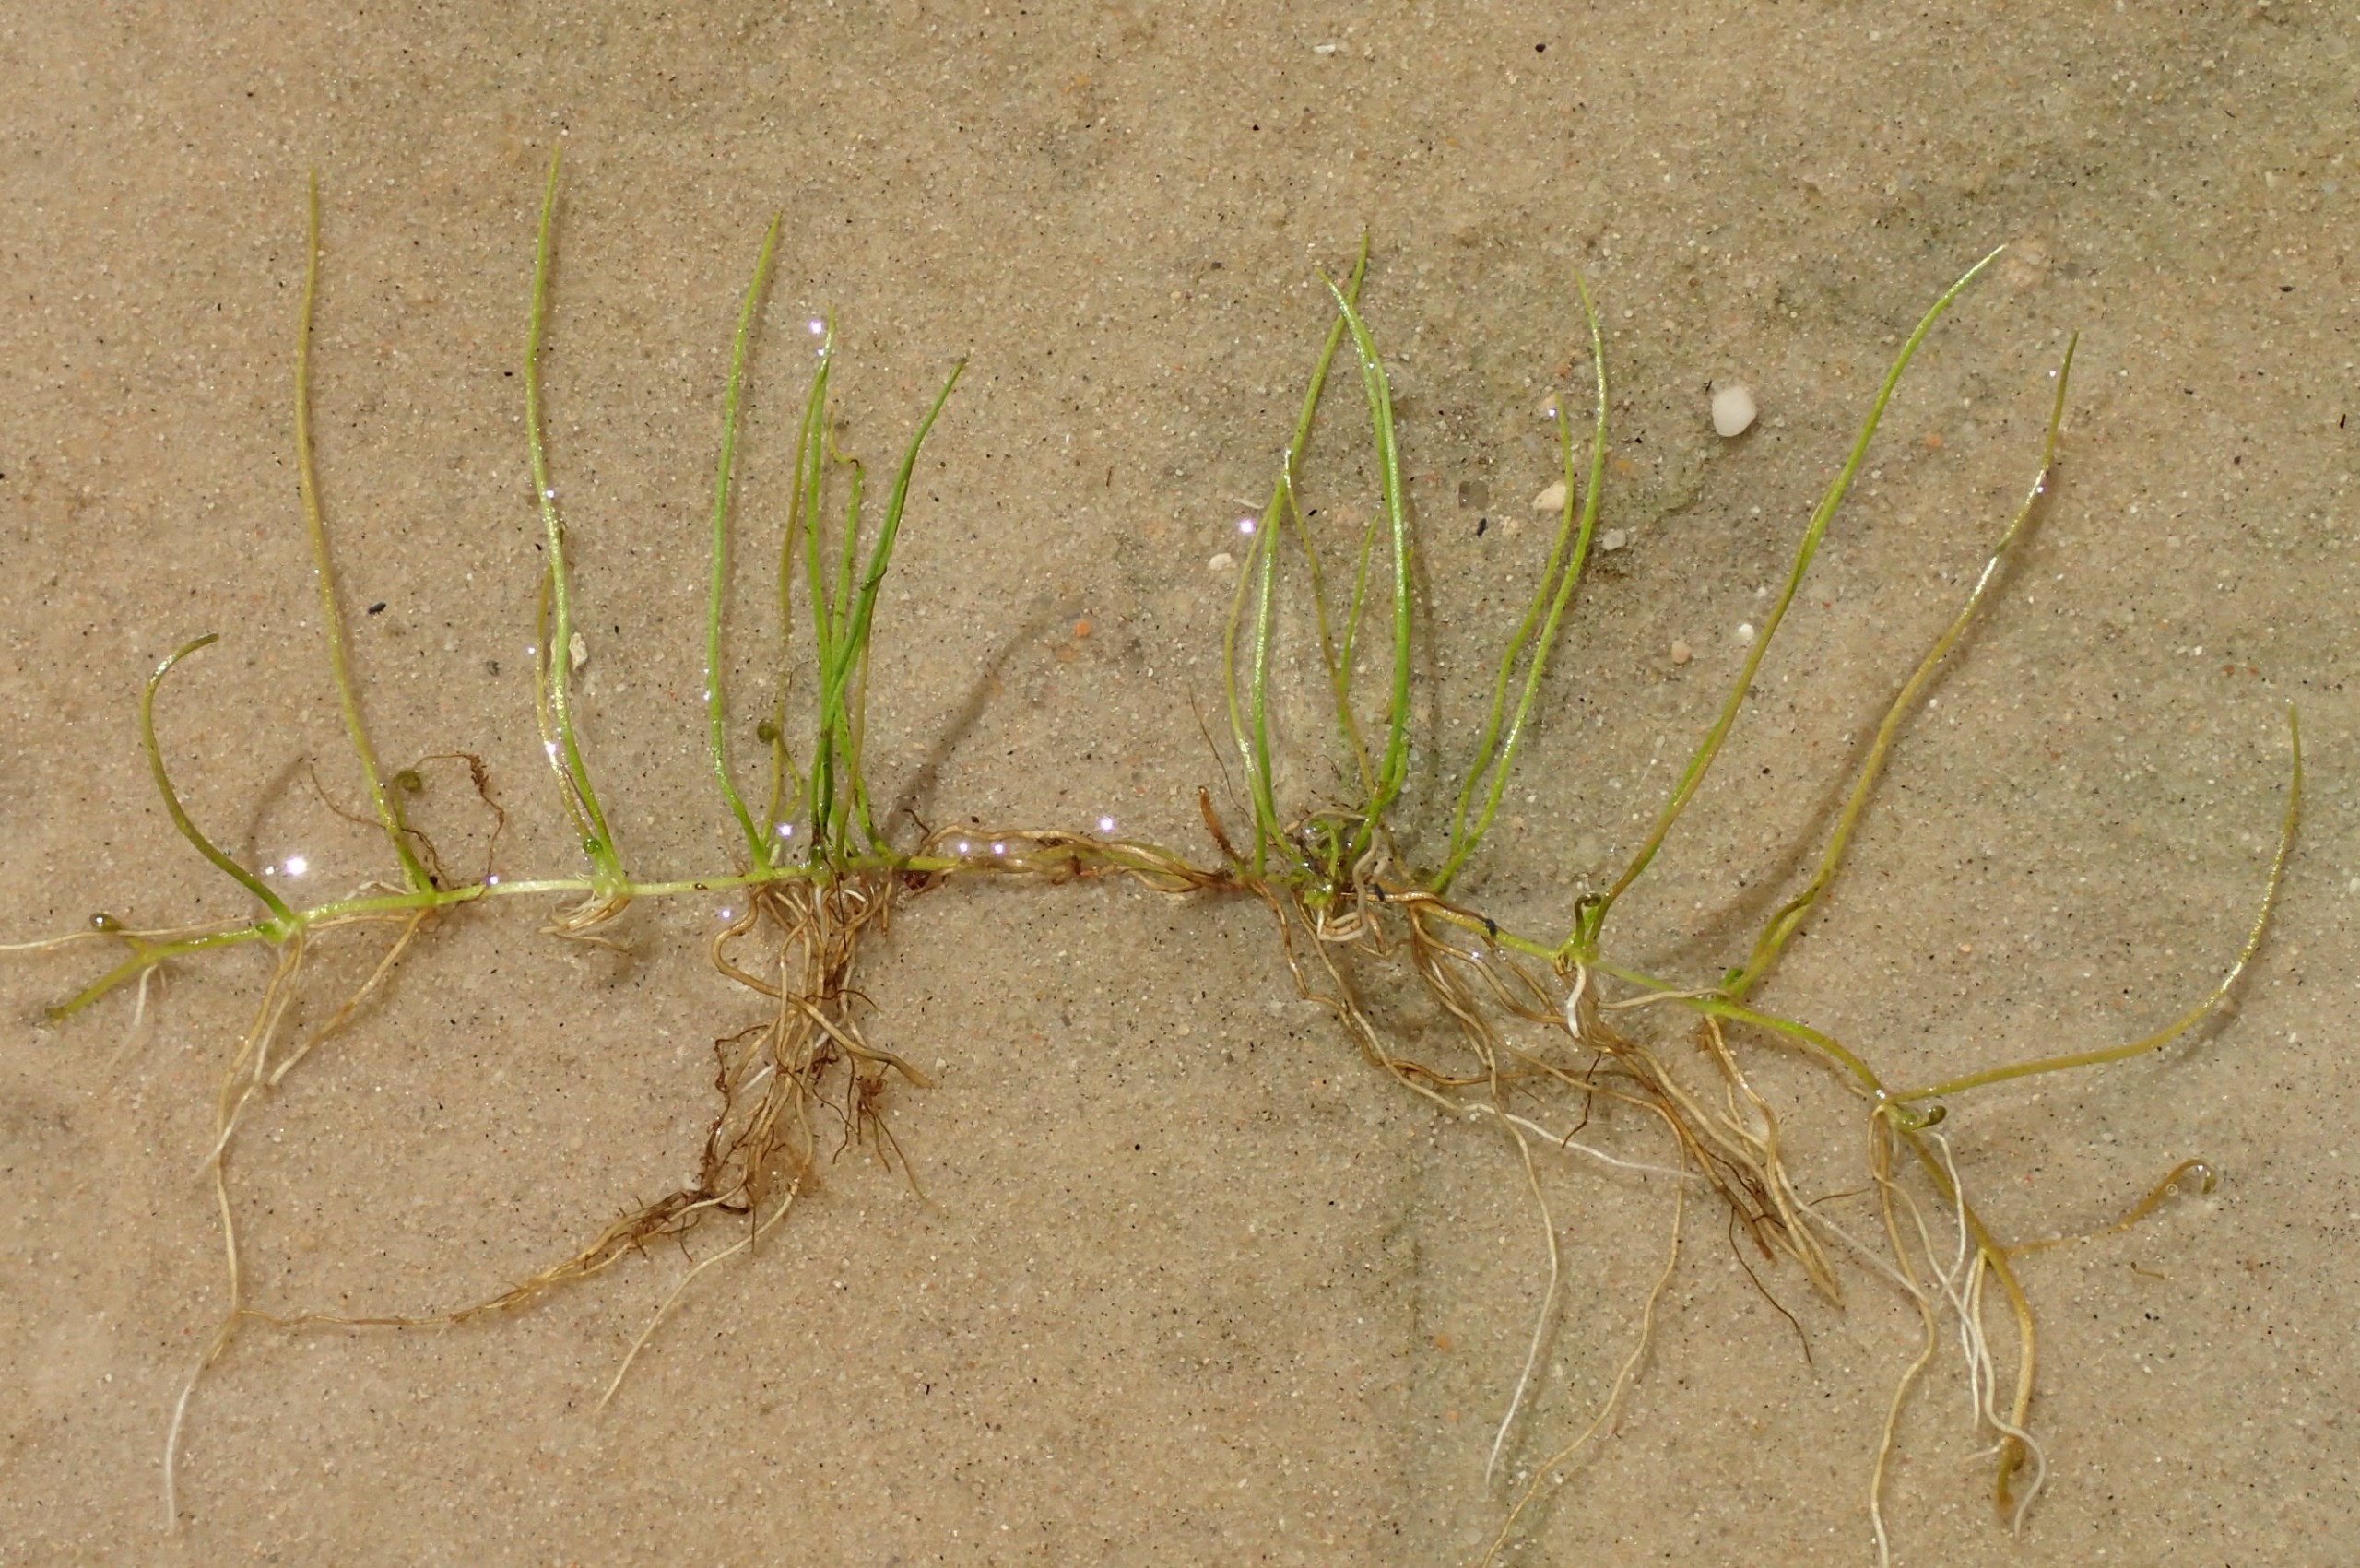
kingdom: Plantae
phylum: Tracheophyta
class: Polypodiopsida
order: Salviniales
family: Marsileaceae
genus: Pilularia
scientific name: Pilularia globulifera
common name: Pilledrager
